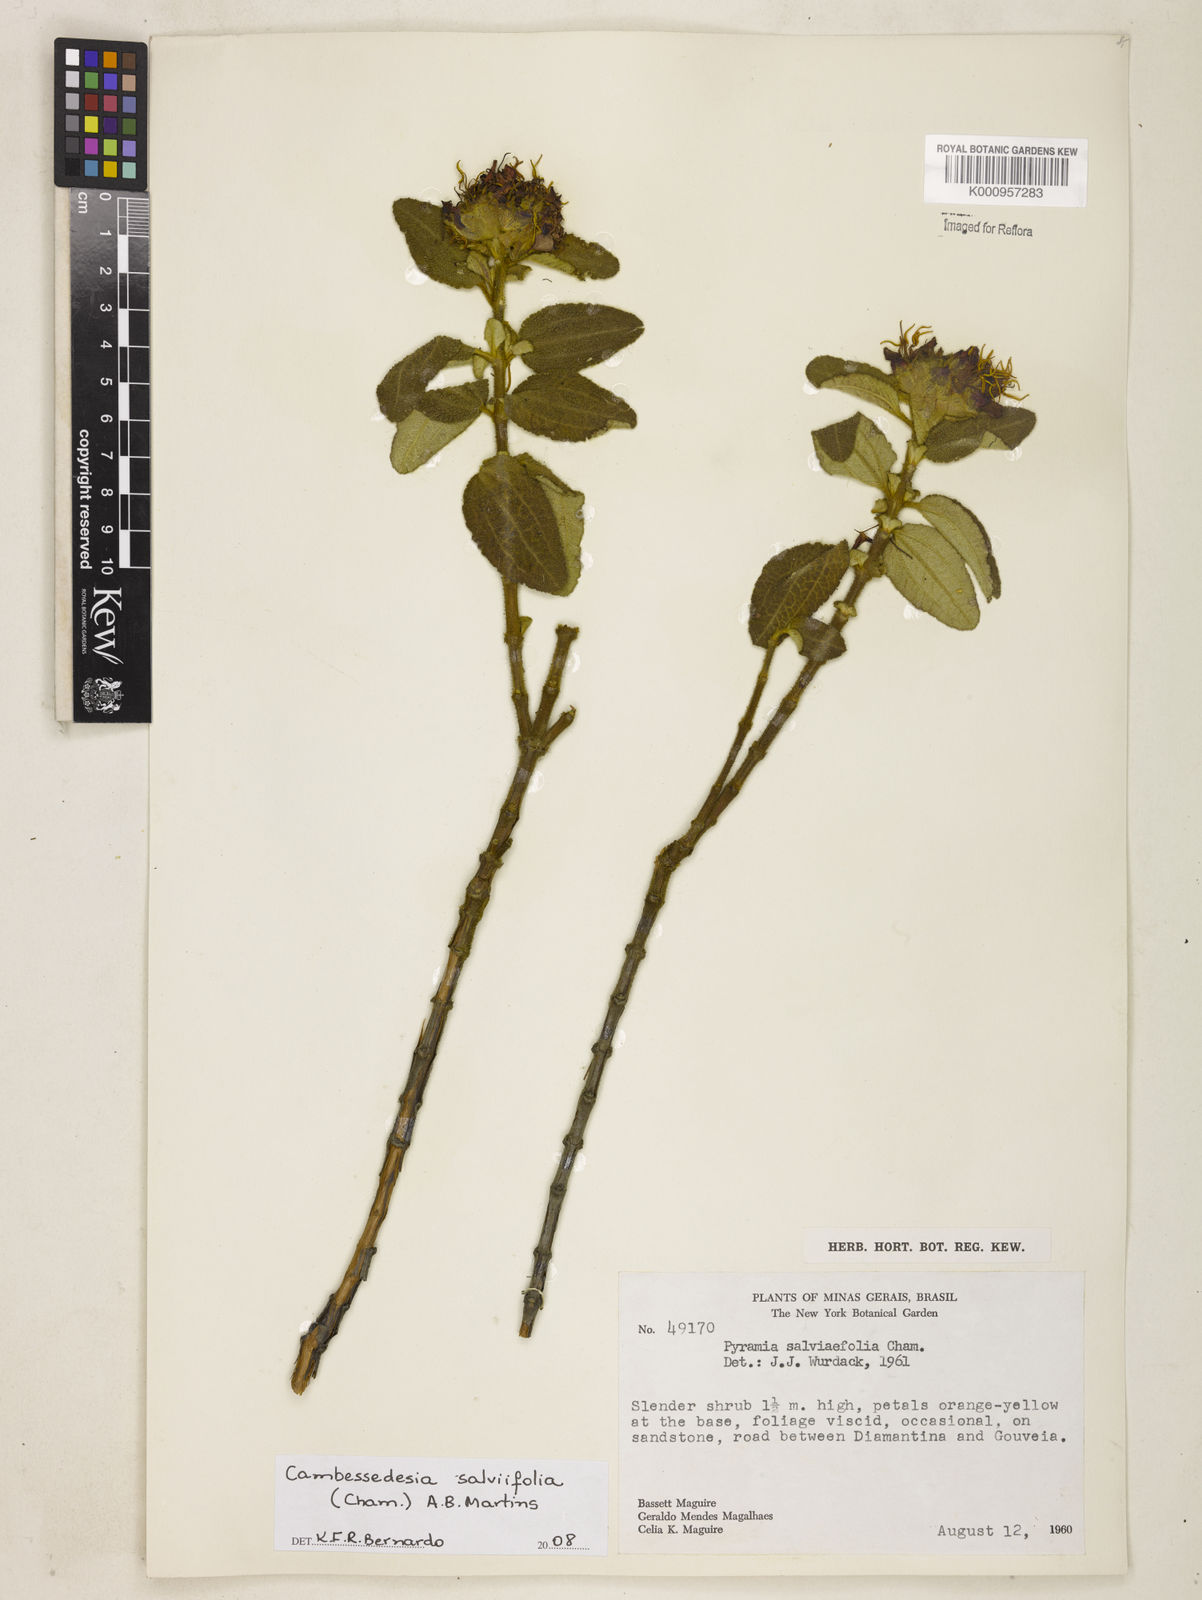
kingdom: Plantae
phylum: Tracheophyta
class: Magnoliopsida
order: Myrtales
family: Melastomataceae
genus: Cambessedesia
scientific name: Cambessedesia
